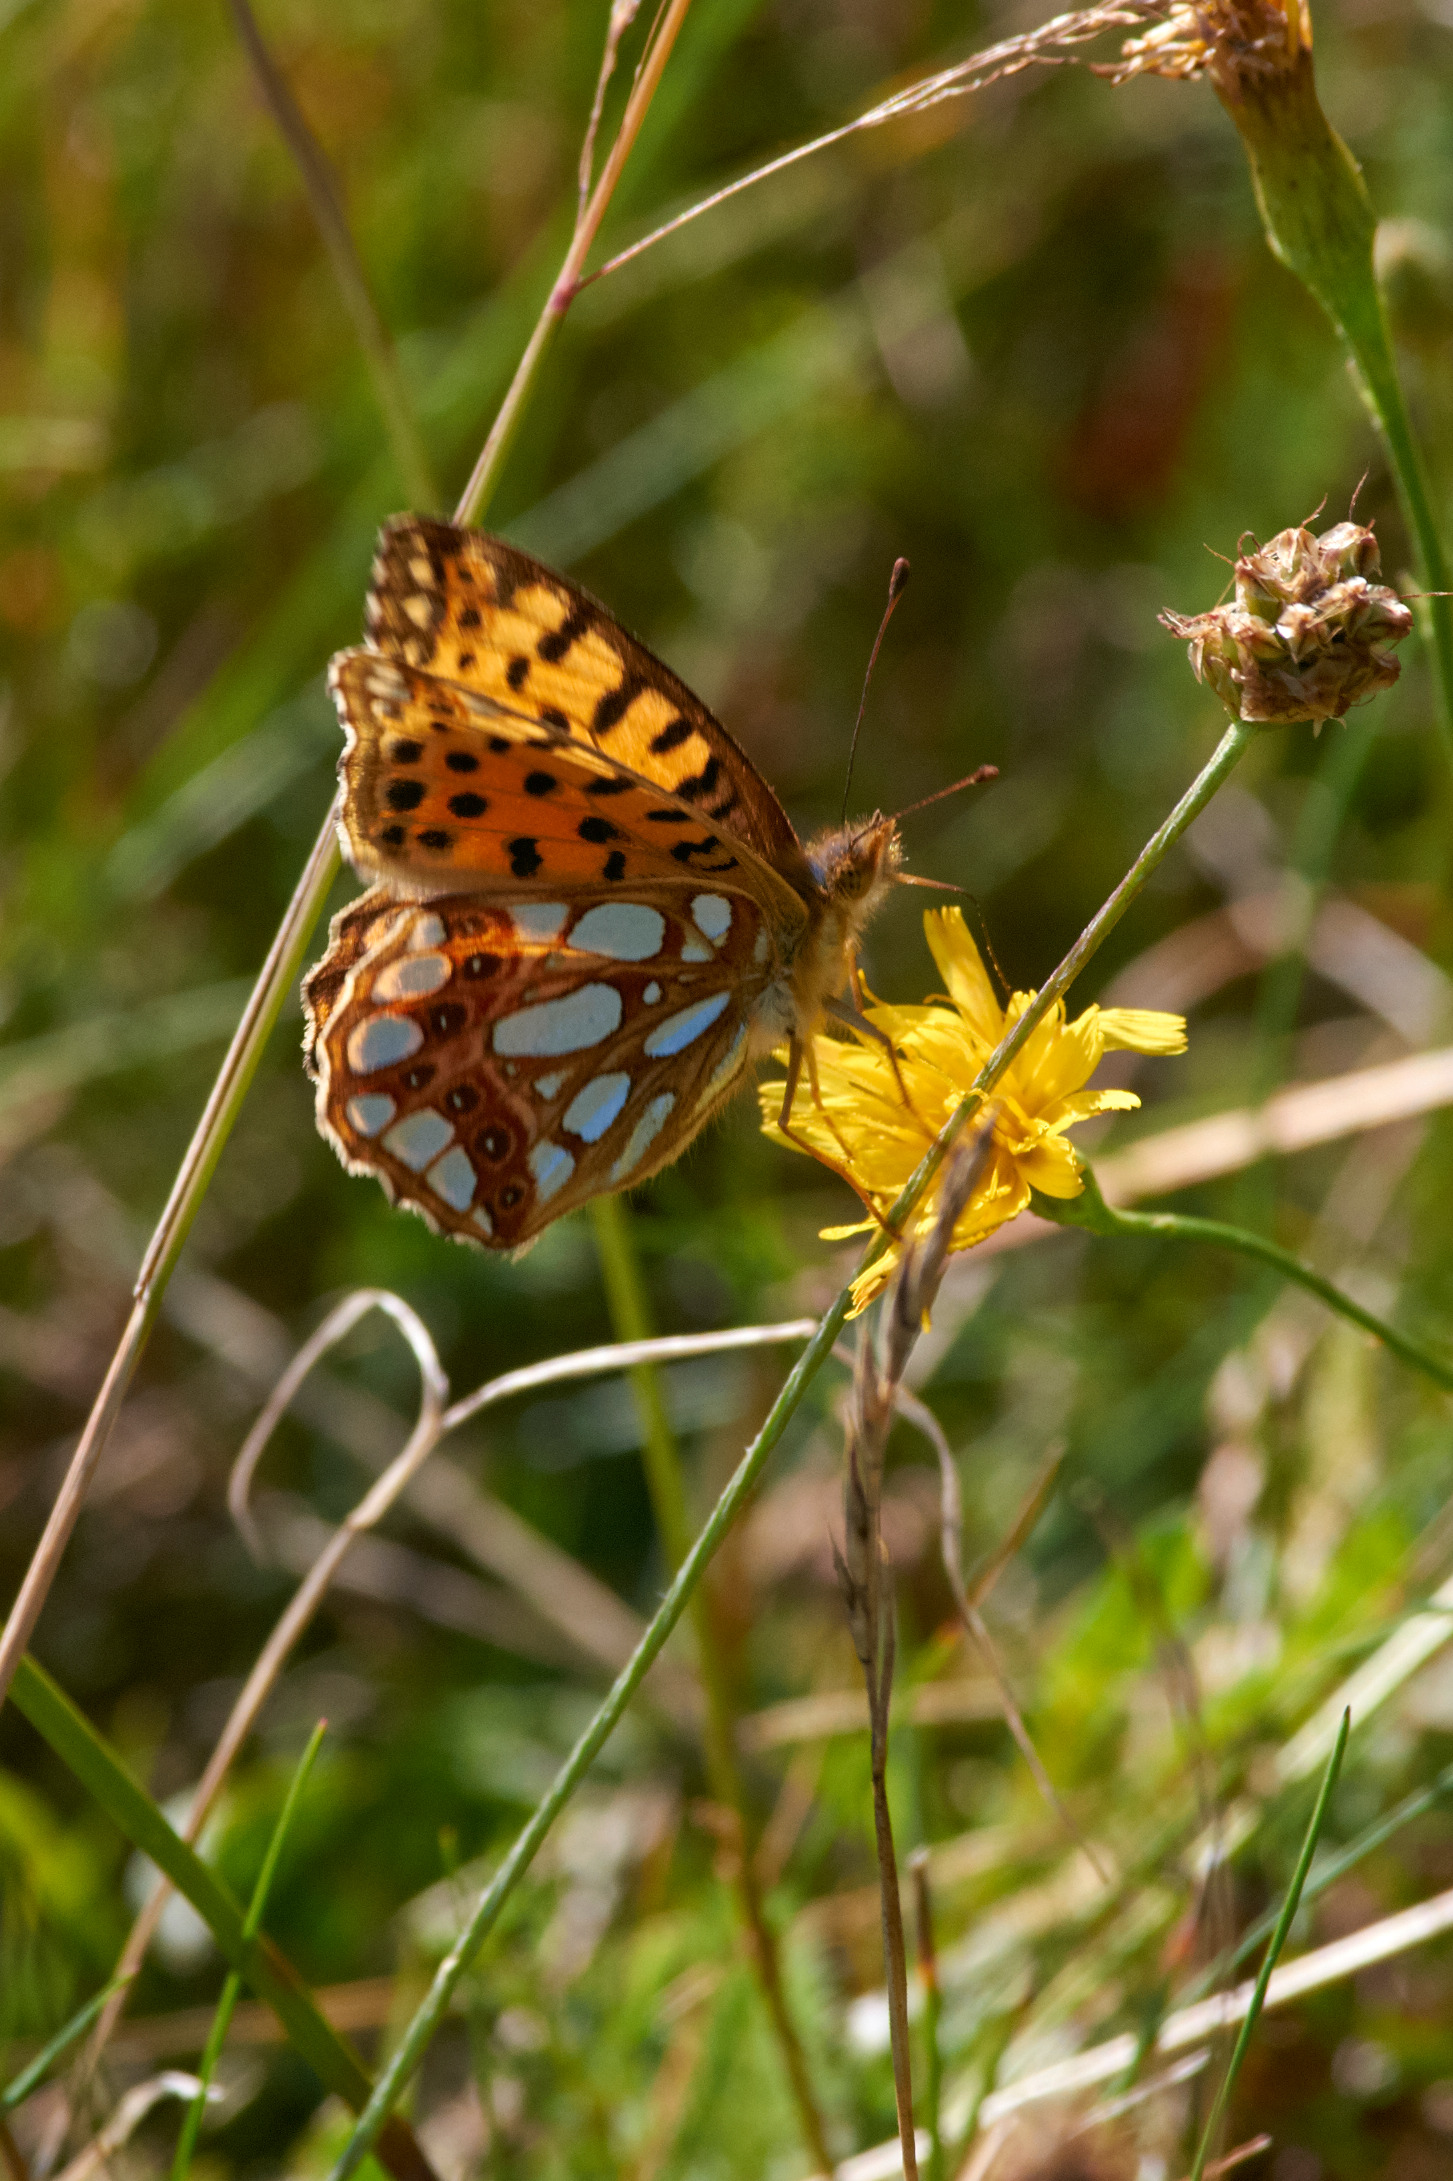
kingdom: Animalia
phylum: Arthropoda
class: Insecta
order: Lepidoptera
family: Nymphalidae
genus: Issoria
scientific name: Issoria lathonia
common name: Storplettet perlemorsommerfugl
